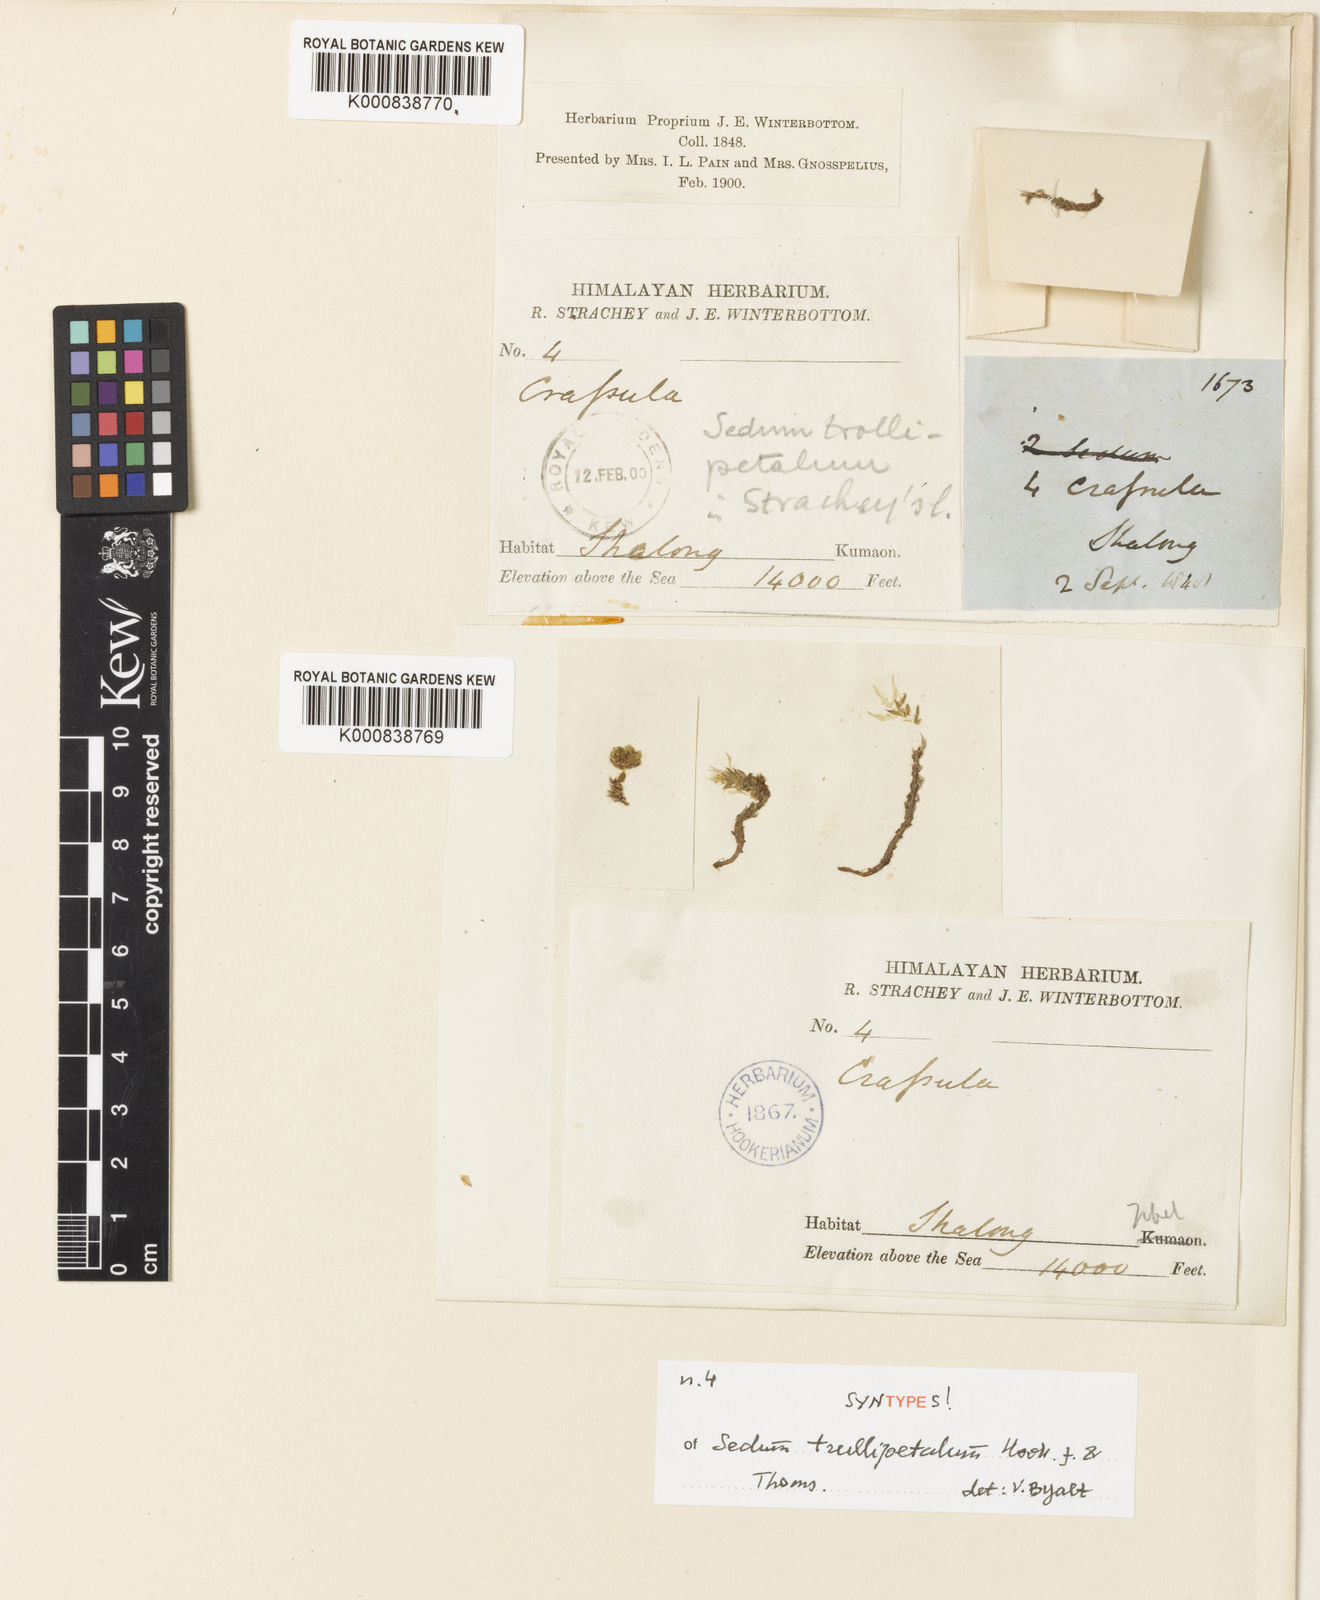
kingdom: Plantae
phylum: Tracheophyta
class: Magnoliopsida
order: Saxifragales
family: Crassulaceae
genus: Sedum
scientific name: Sedum trullipetalum
